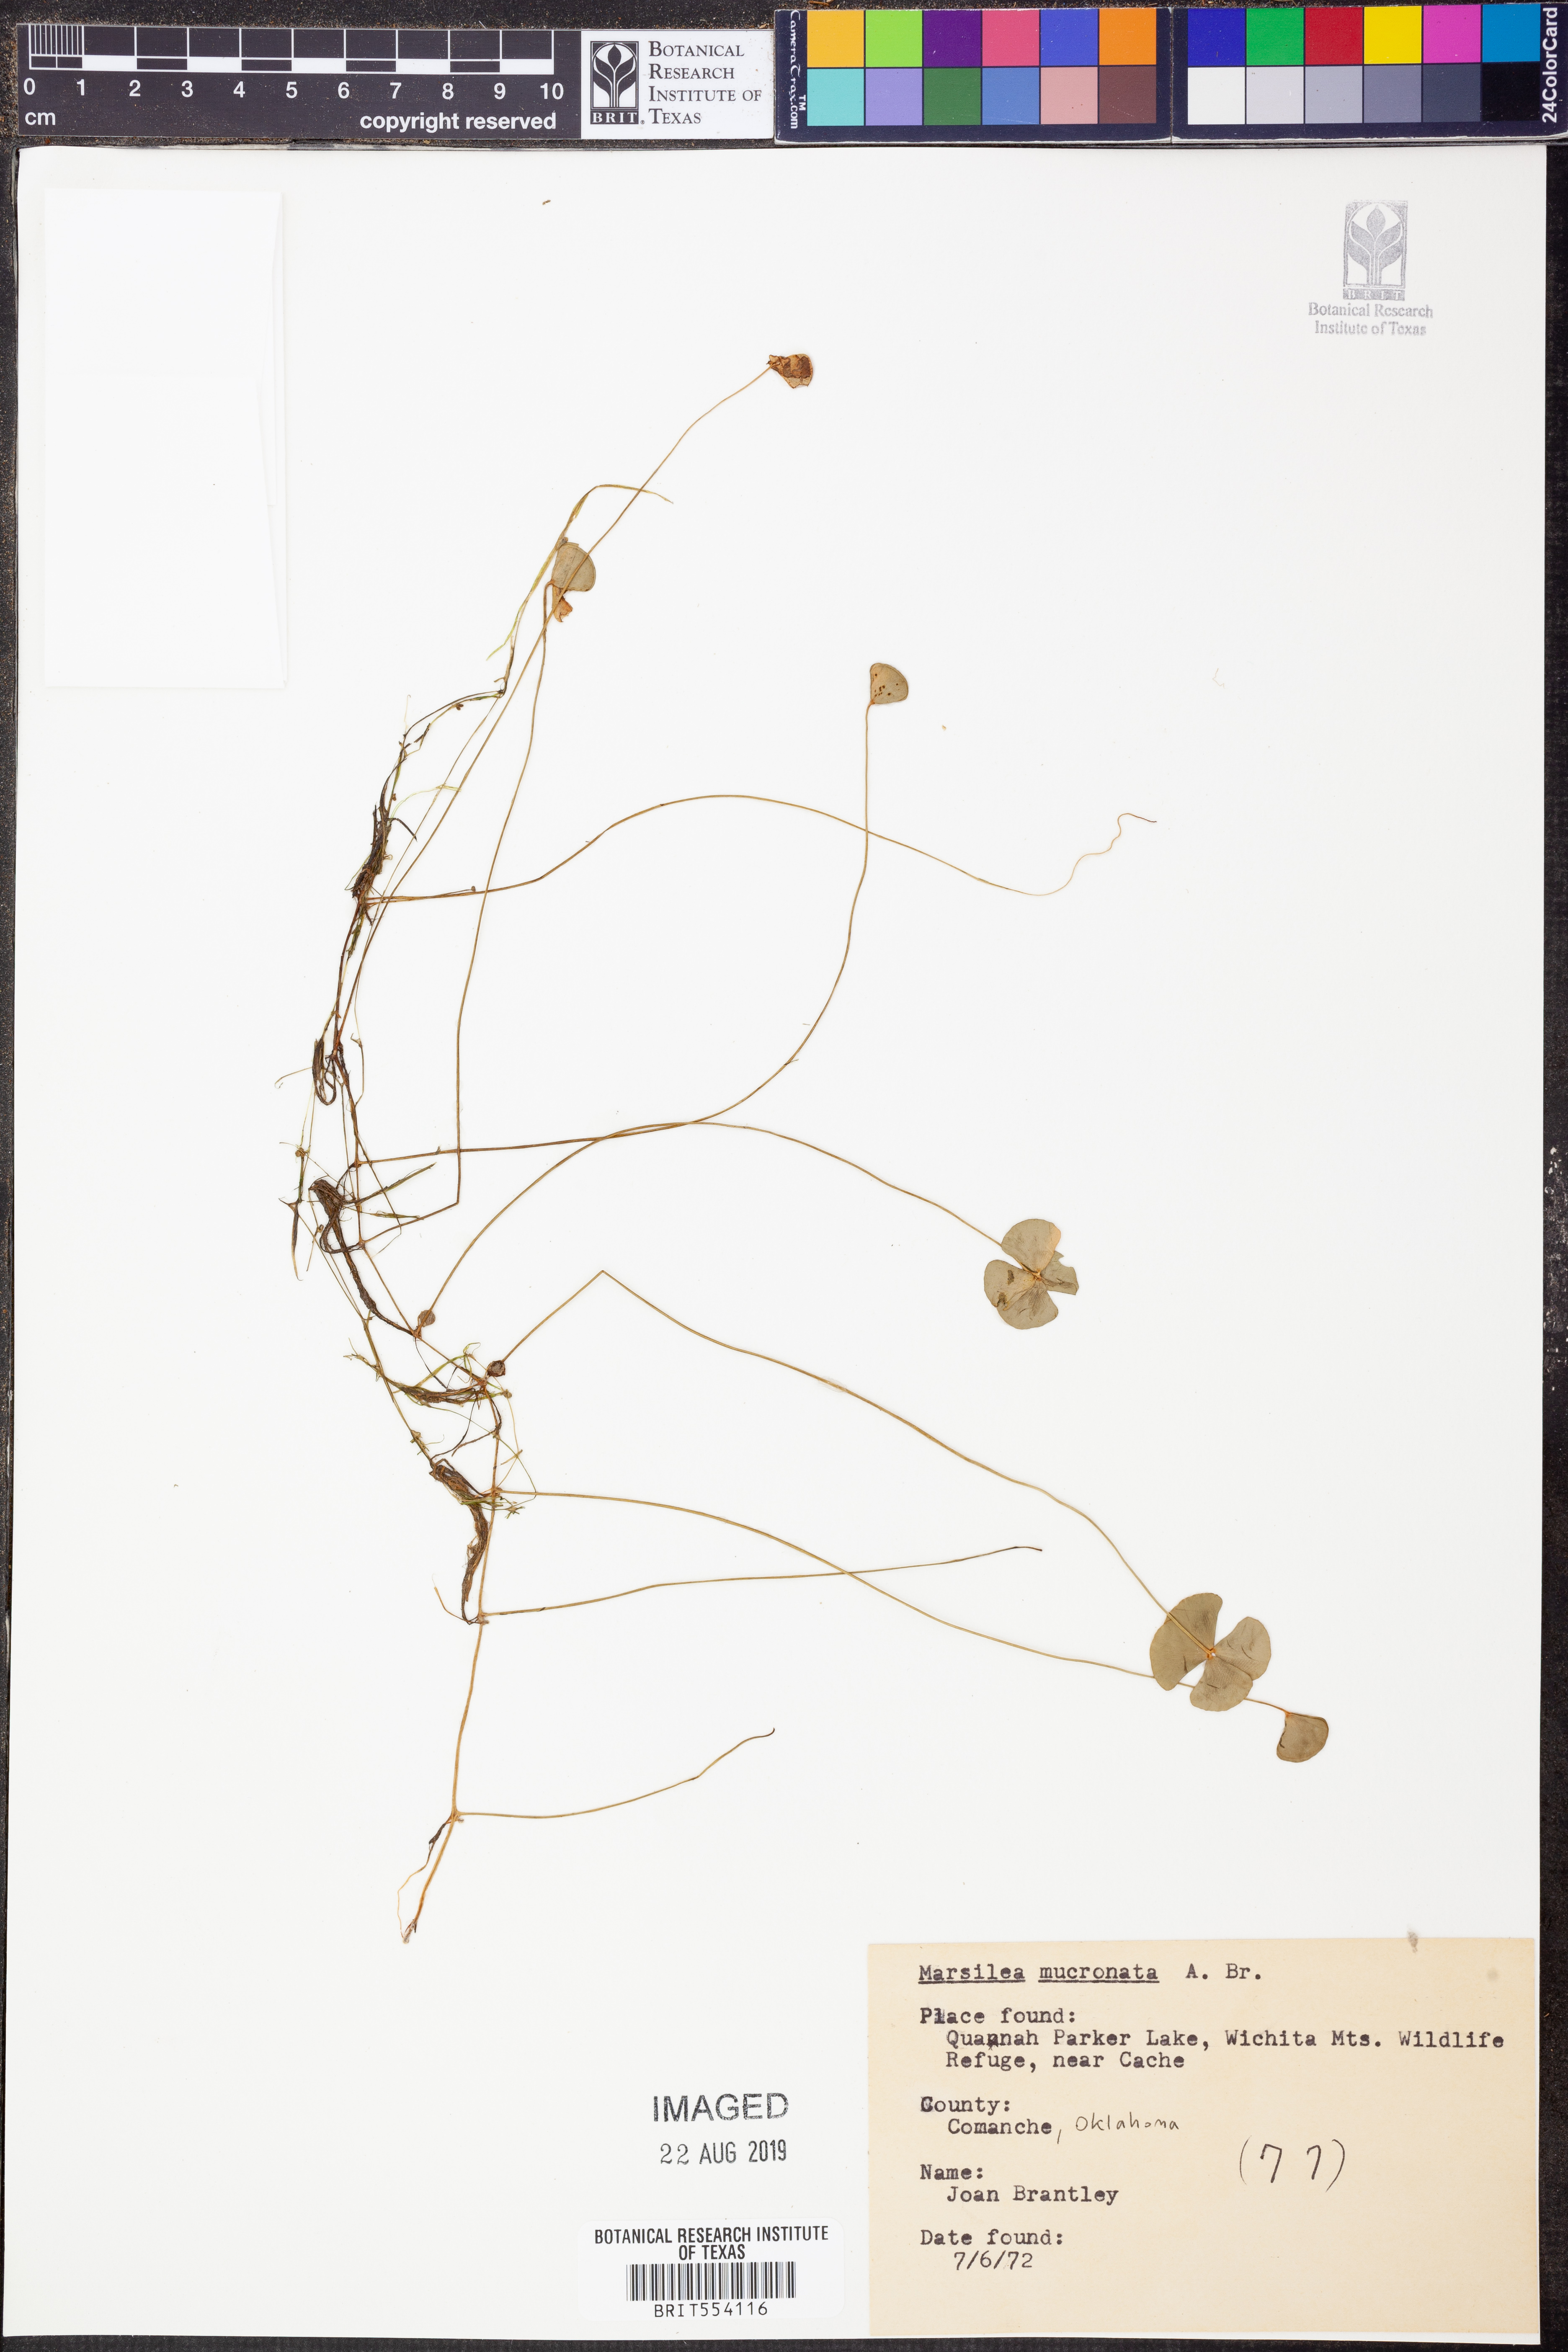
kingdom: Plantae
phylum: Tracheophyta
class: Polypodiopsida
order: Salviniales
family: Marsileaceae
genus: Marsilea
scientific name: Marsilea vestita
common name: Hooked-pepperwort
